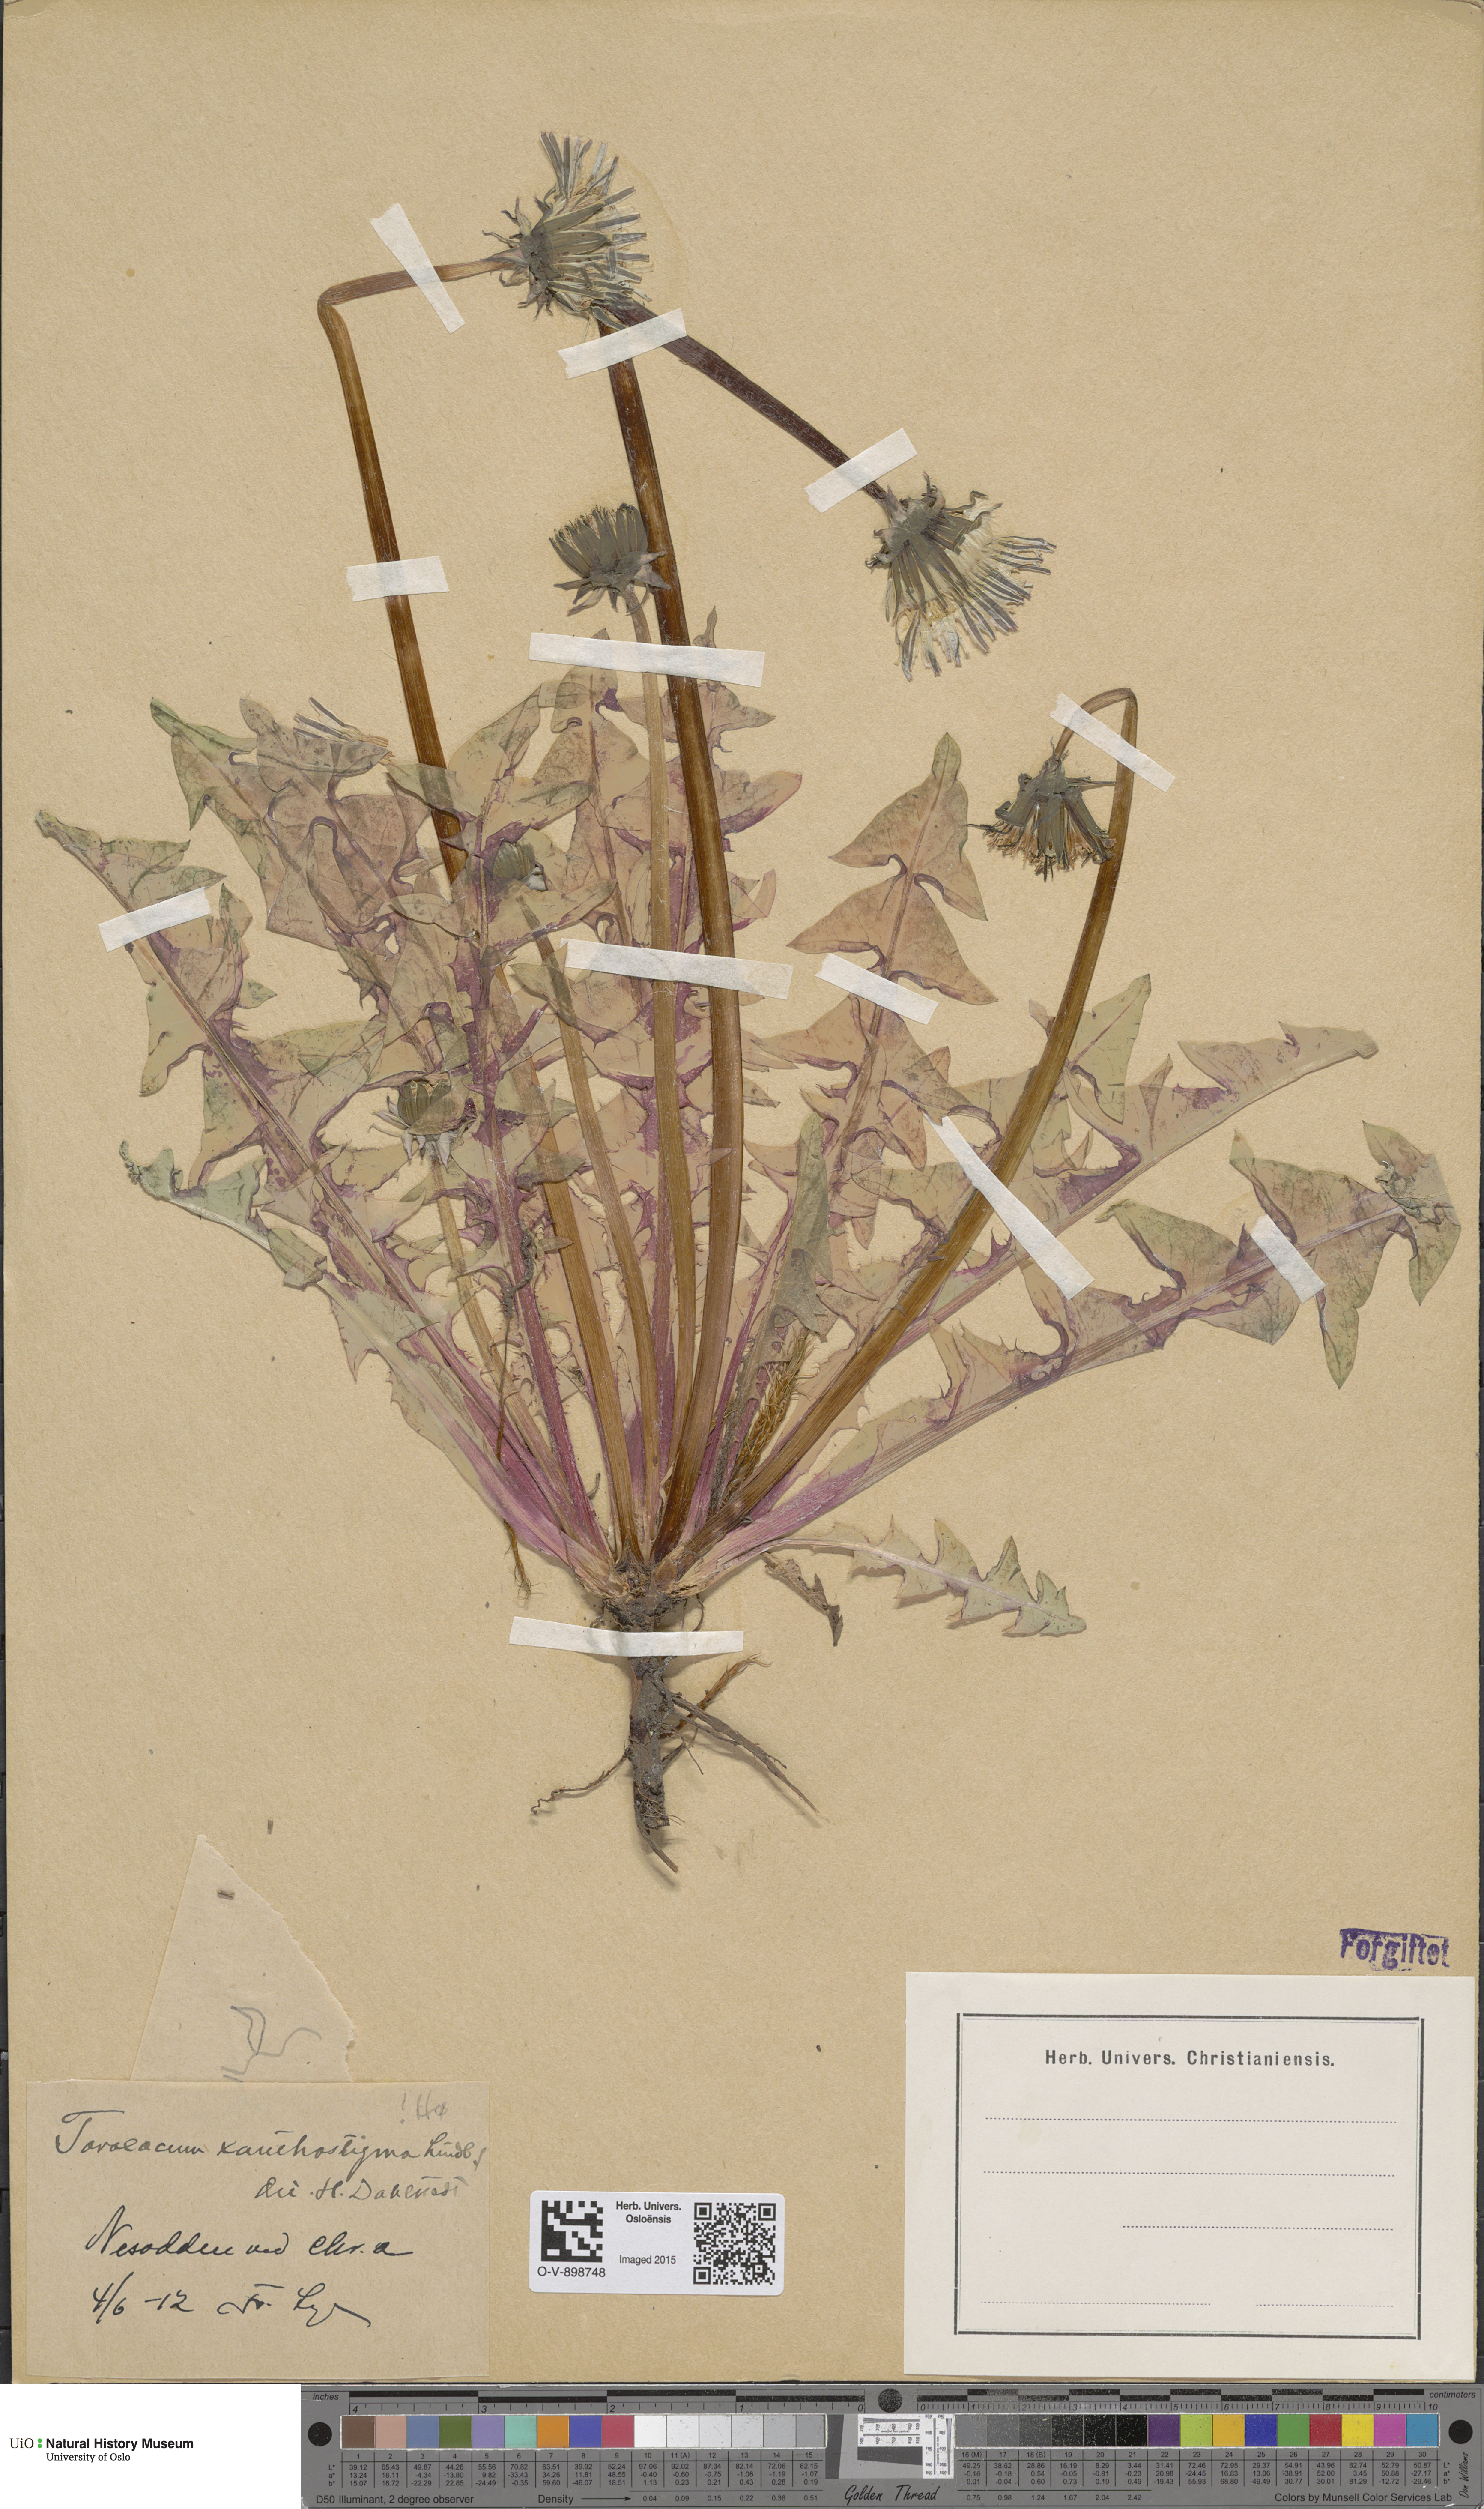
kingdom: Plantae
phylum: Tracheophyta
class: Magnoliopsida
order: Asterales
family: Asteraceae
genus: Taraxacum
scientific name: Taraxacum xanthostigma
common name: Ochre-styled dandelion
